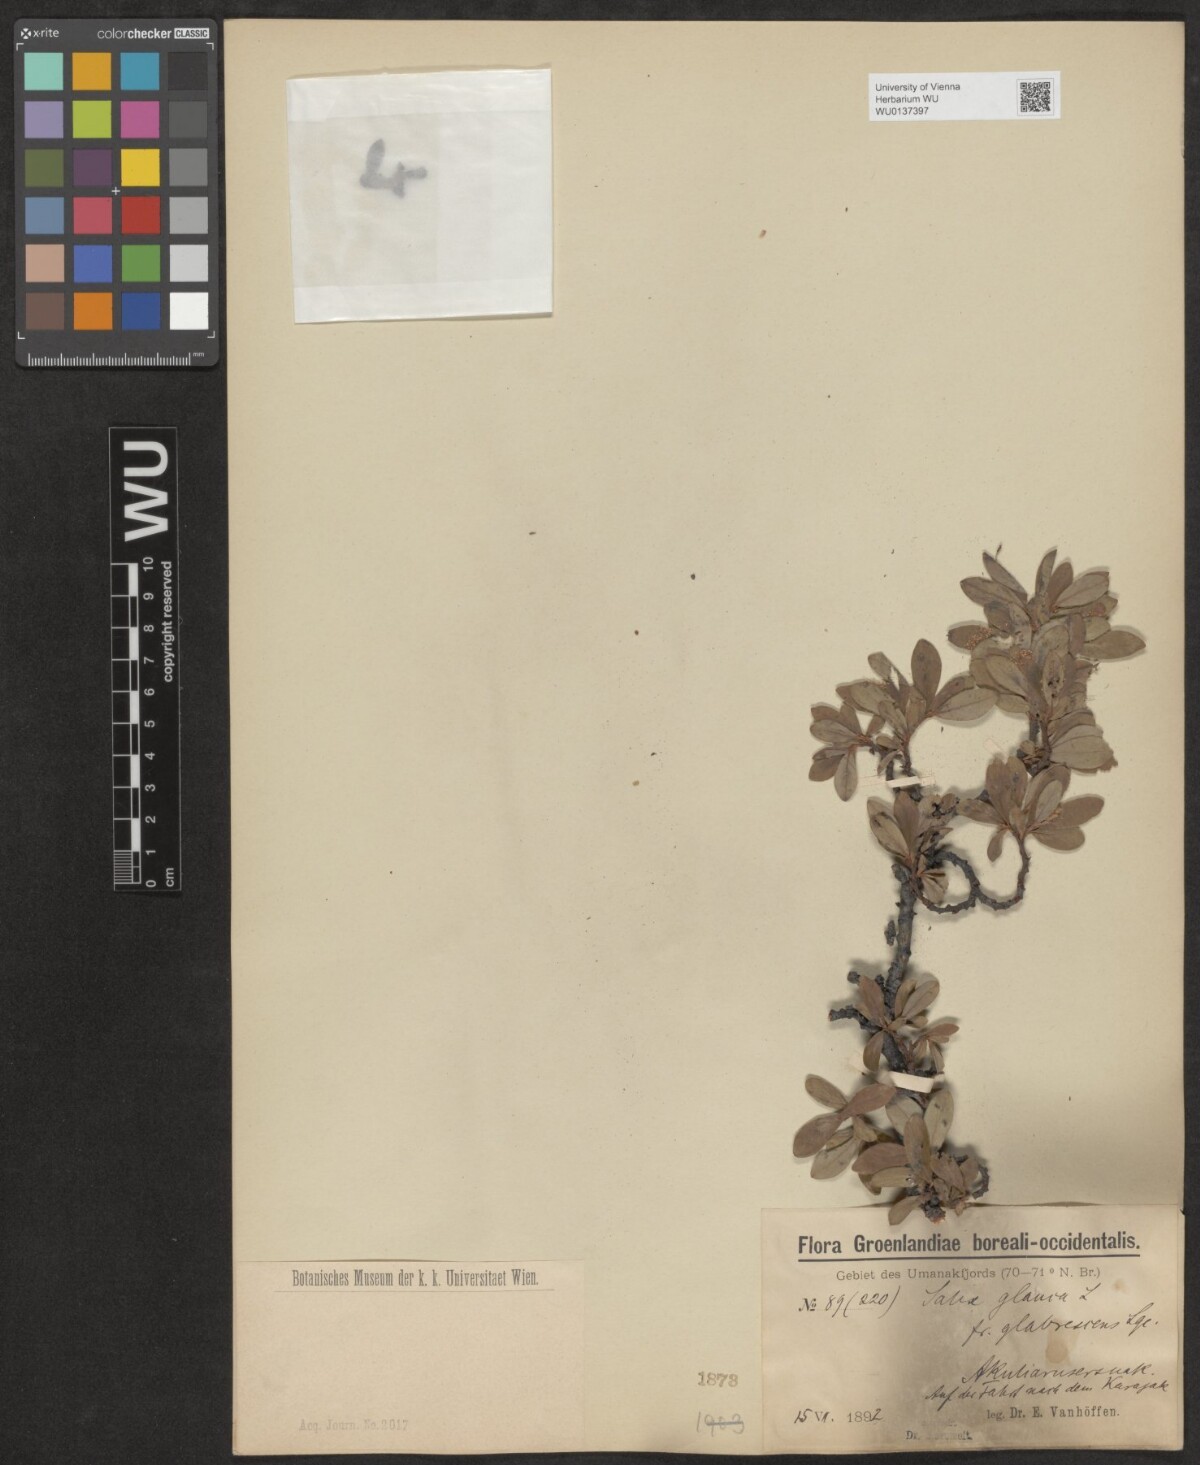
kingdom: Plantae
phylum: Tracheophyta
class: Magnoliopsida
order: Malpighiales
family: Salicaceae
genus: Salix
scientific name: Salix glauca
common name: Glaucous willow
